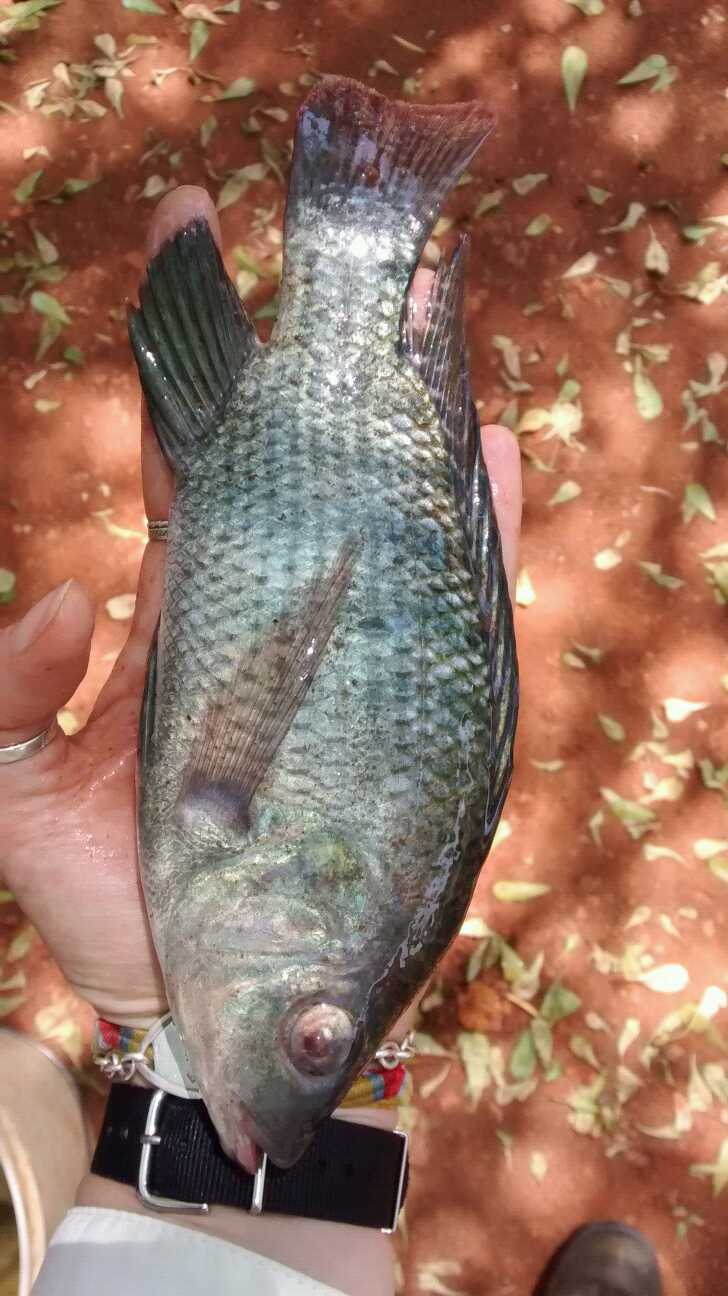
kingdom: Animalia
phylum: Chordata
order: Perciformes
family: Cichlidae
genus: Oreochromis
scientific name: Oreochromis niloticus
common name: Nile tilapia
